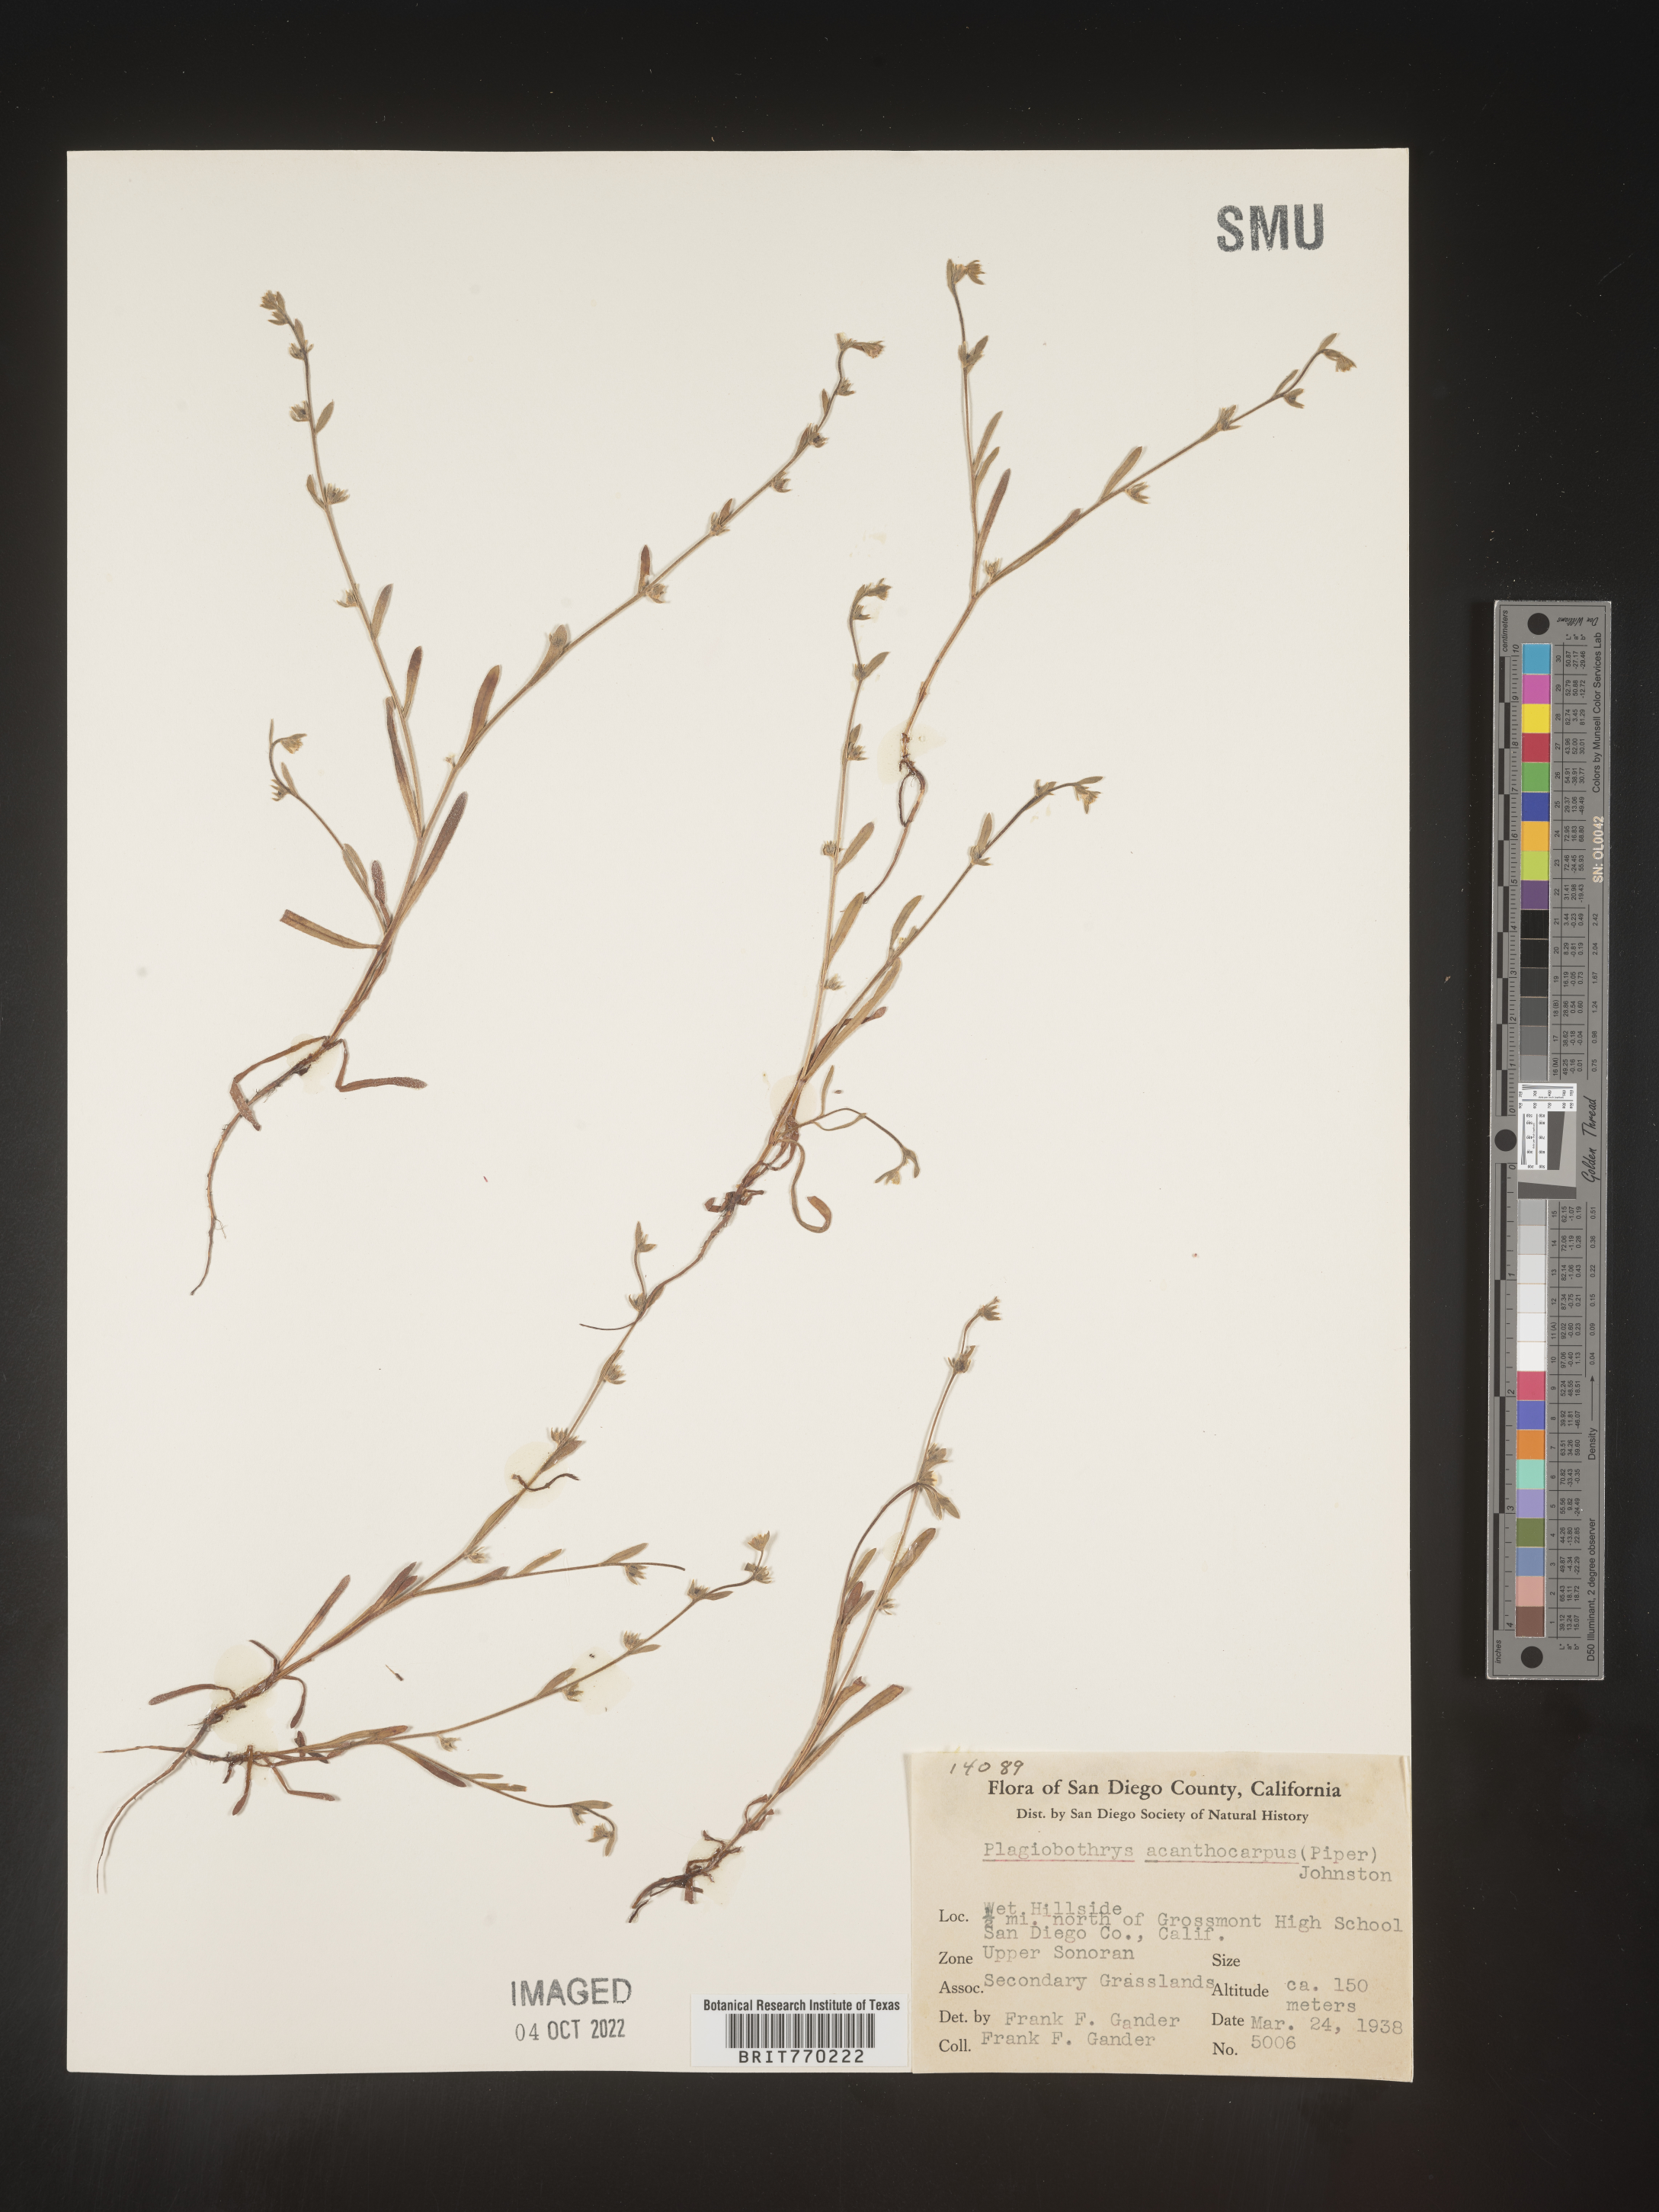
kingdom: Plantae
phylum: Tracheophyta
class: Magnoliopsida
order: Boraginales
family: Boraginaceae
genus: Plagiobothrys
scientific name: Plagiobothrys
